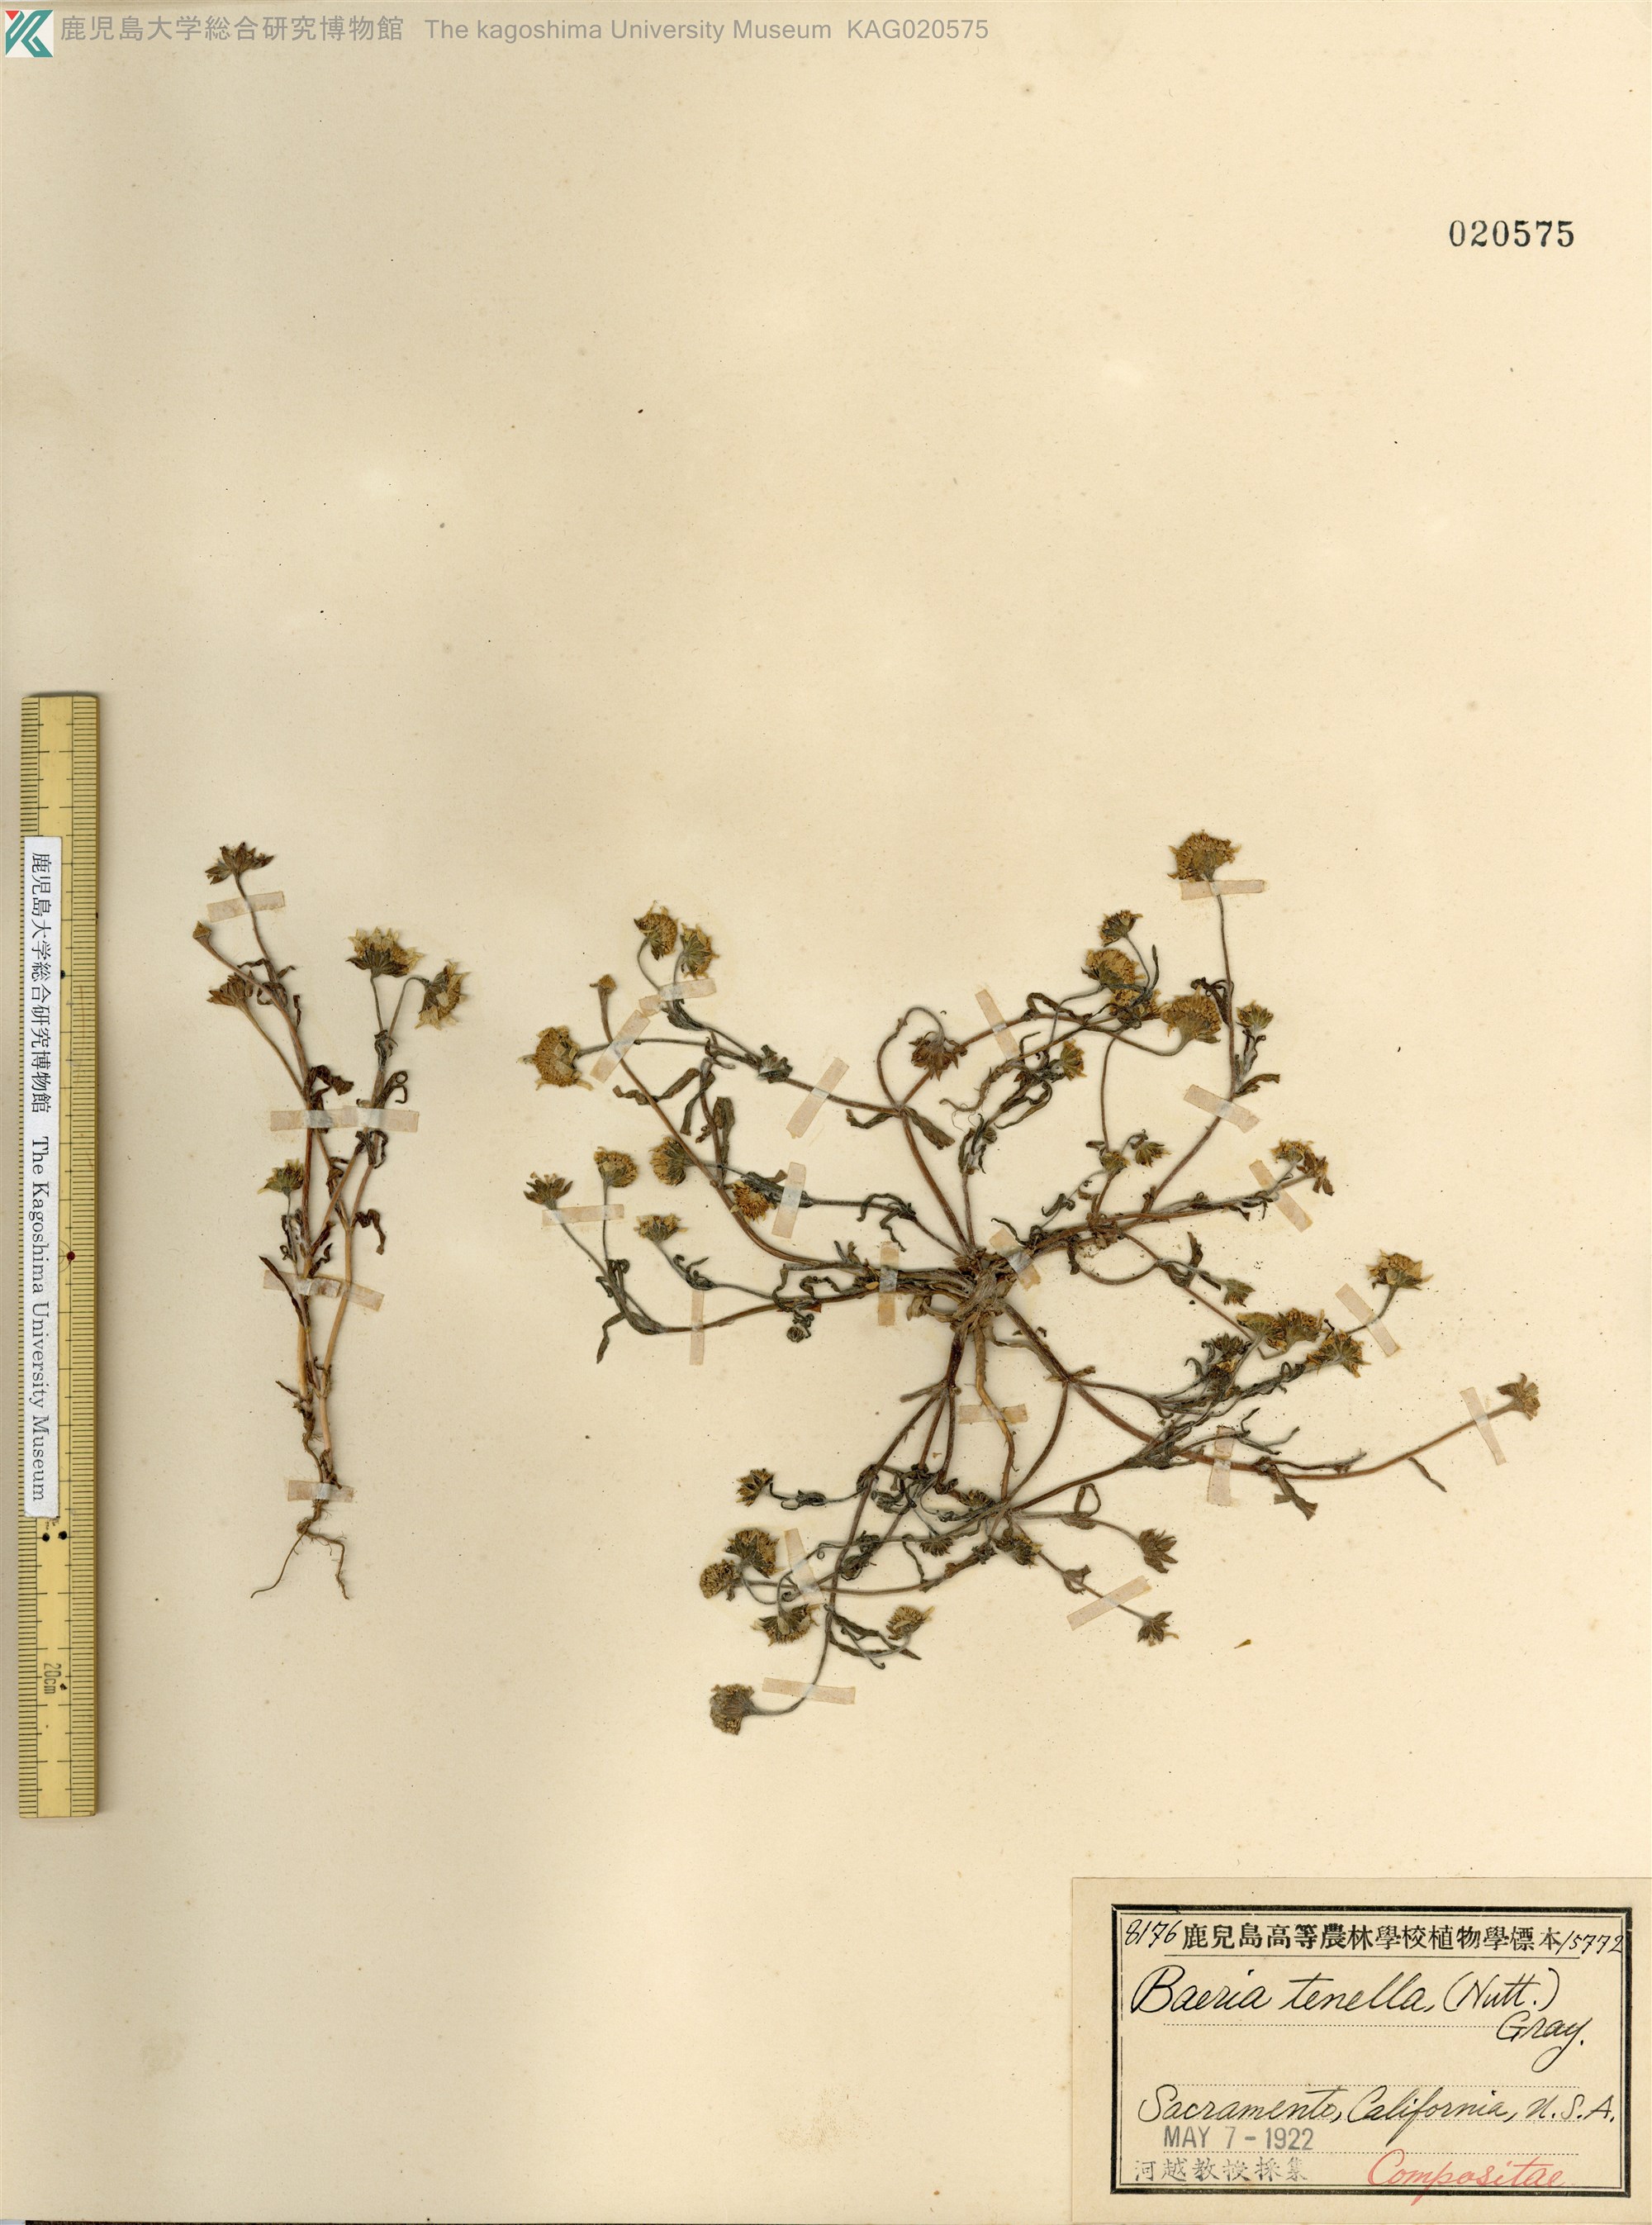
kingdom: Plantae
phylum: Tracheophyta
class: Magnoliopsida
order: Asterales
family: Asteraceae
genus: Lasthenia
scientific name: Lasthenia coronaria
